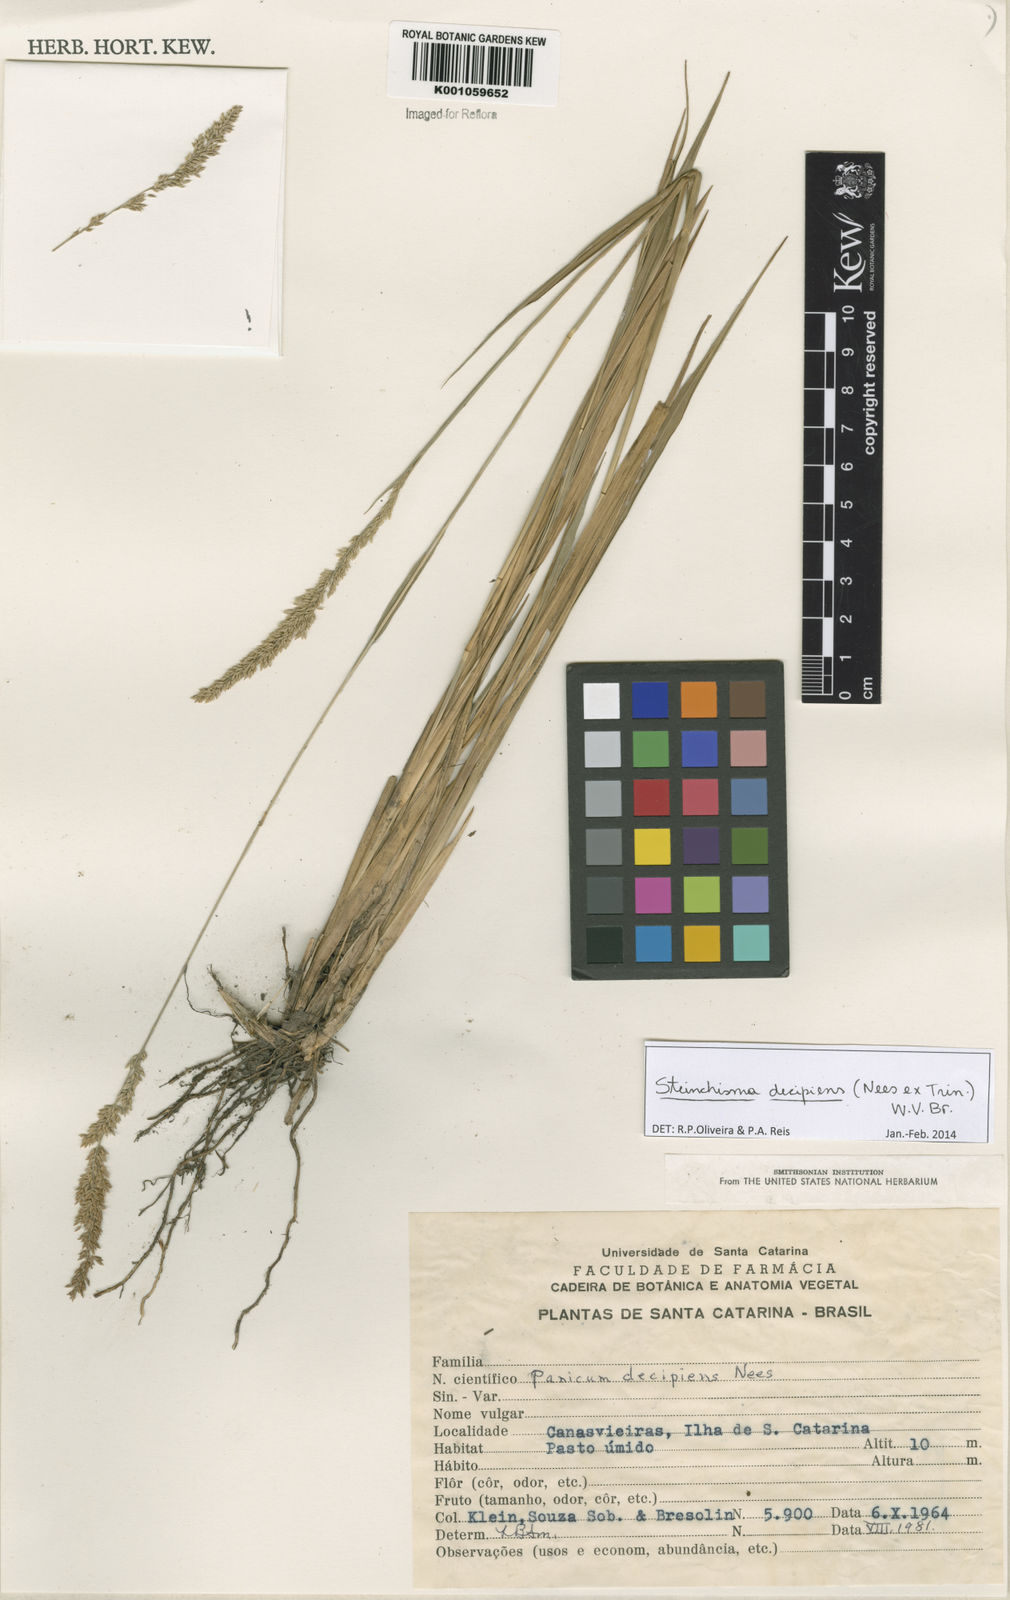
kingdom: Plantae
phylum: Tracheophyta
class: Liliopsida
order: Poales
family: Poaceae
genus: Steinchisma
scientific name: Steinchisma decipiens
